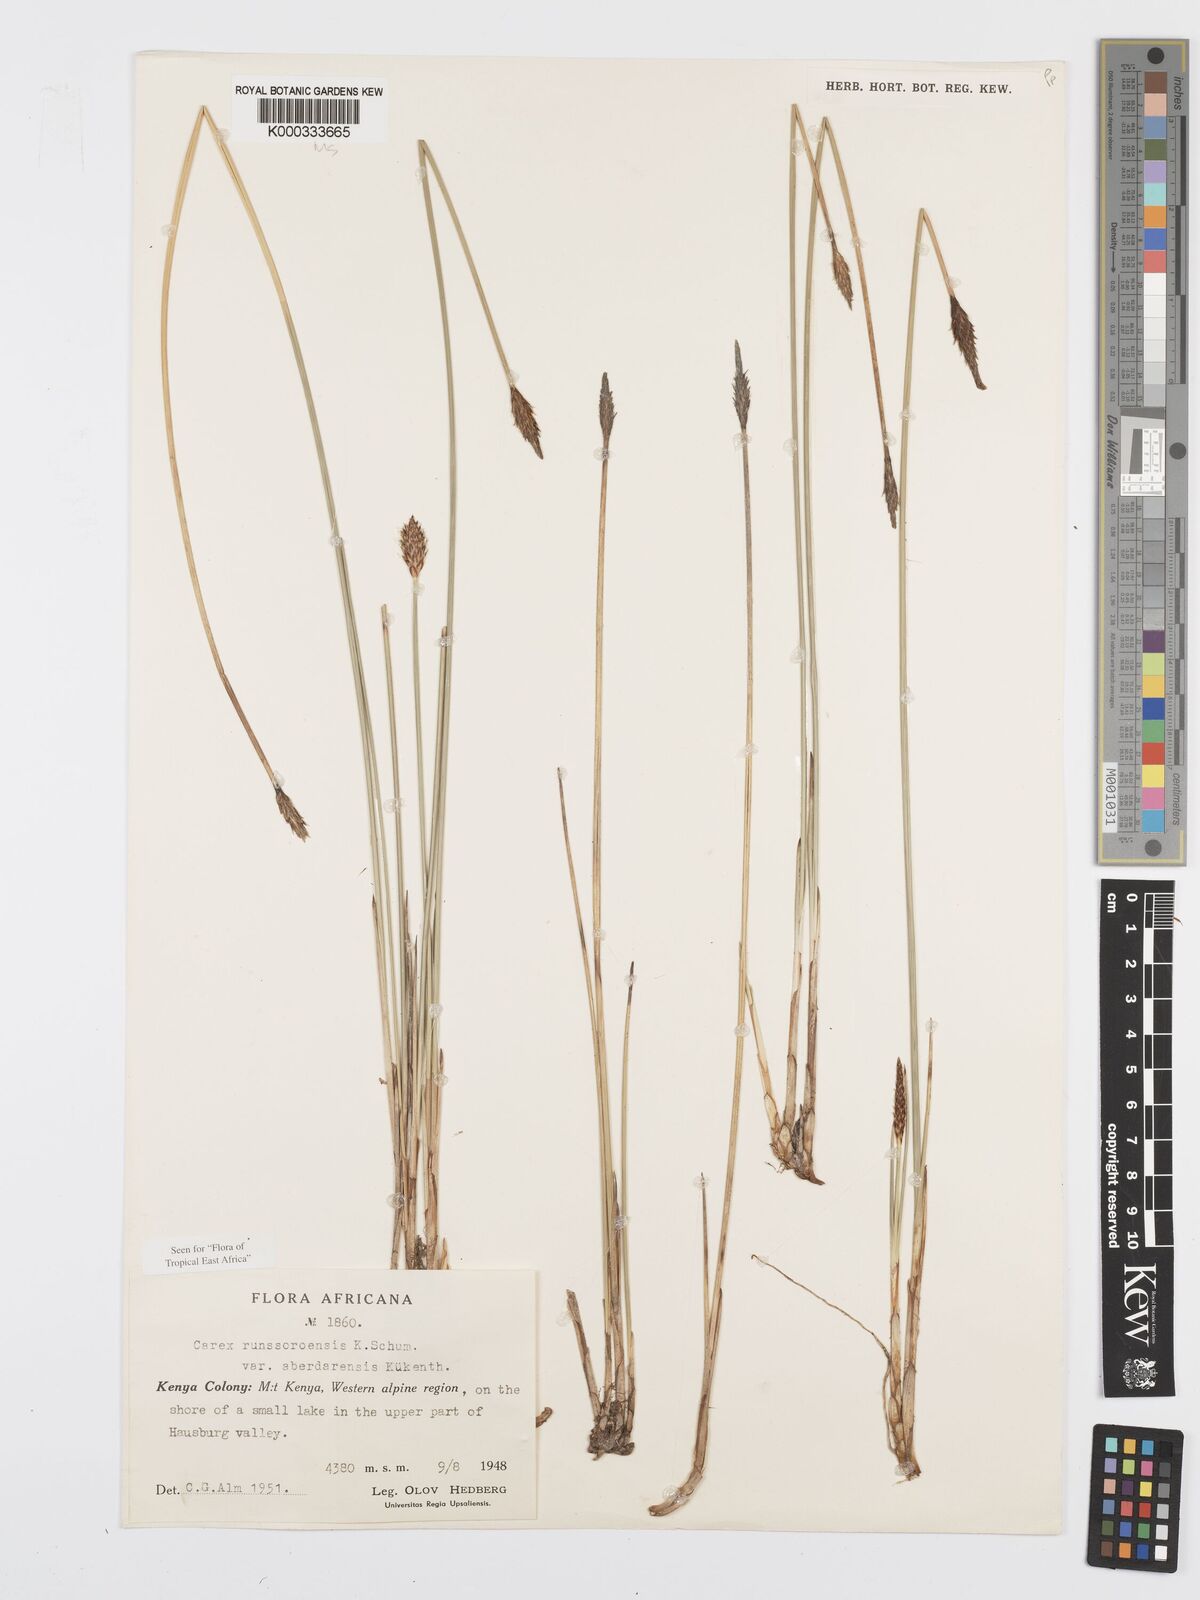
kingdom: Plantae
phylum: Tracheophyta
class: Liliopsida
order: Poales
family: Cyperaceae
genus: Carex
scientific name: Carex runssoroensis
